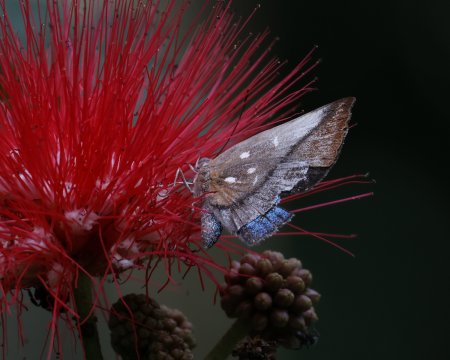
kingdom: Animalia
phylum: Arthropoda
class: Insecta
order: Lepidoptera
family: Nymphalidae
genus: Ethope
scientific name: Ethope
